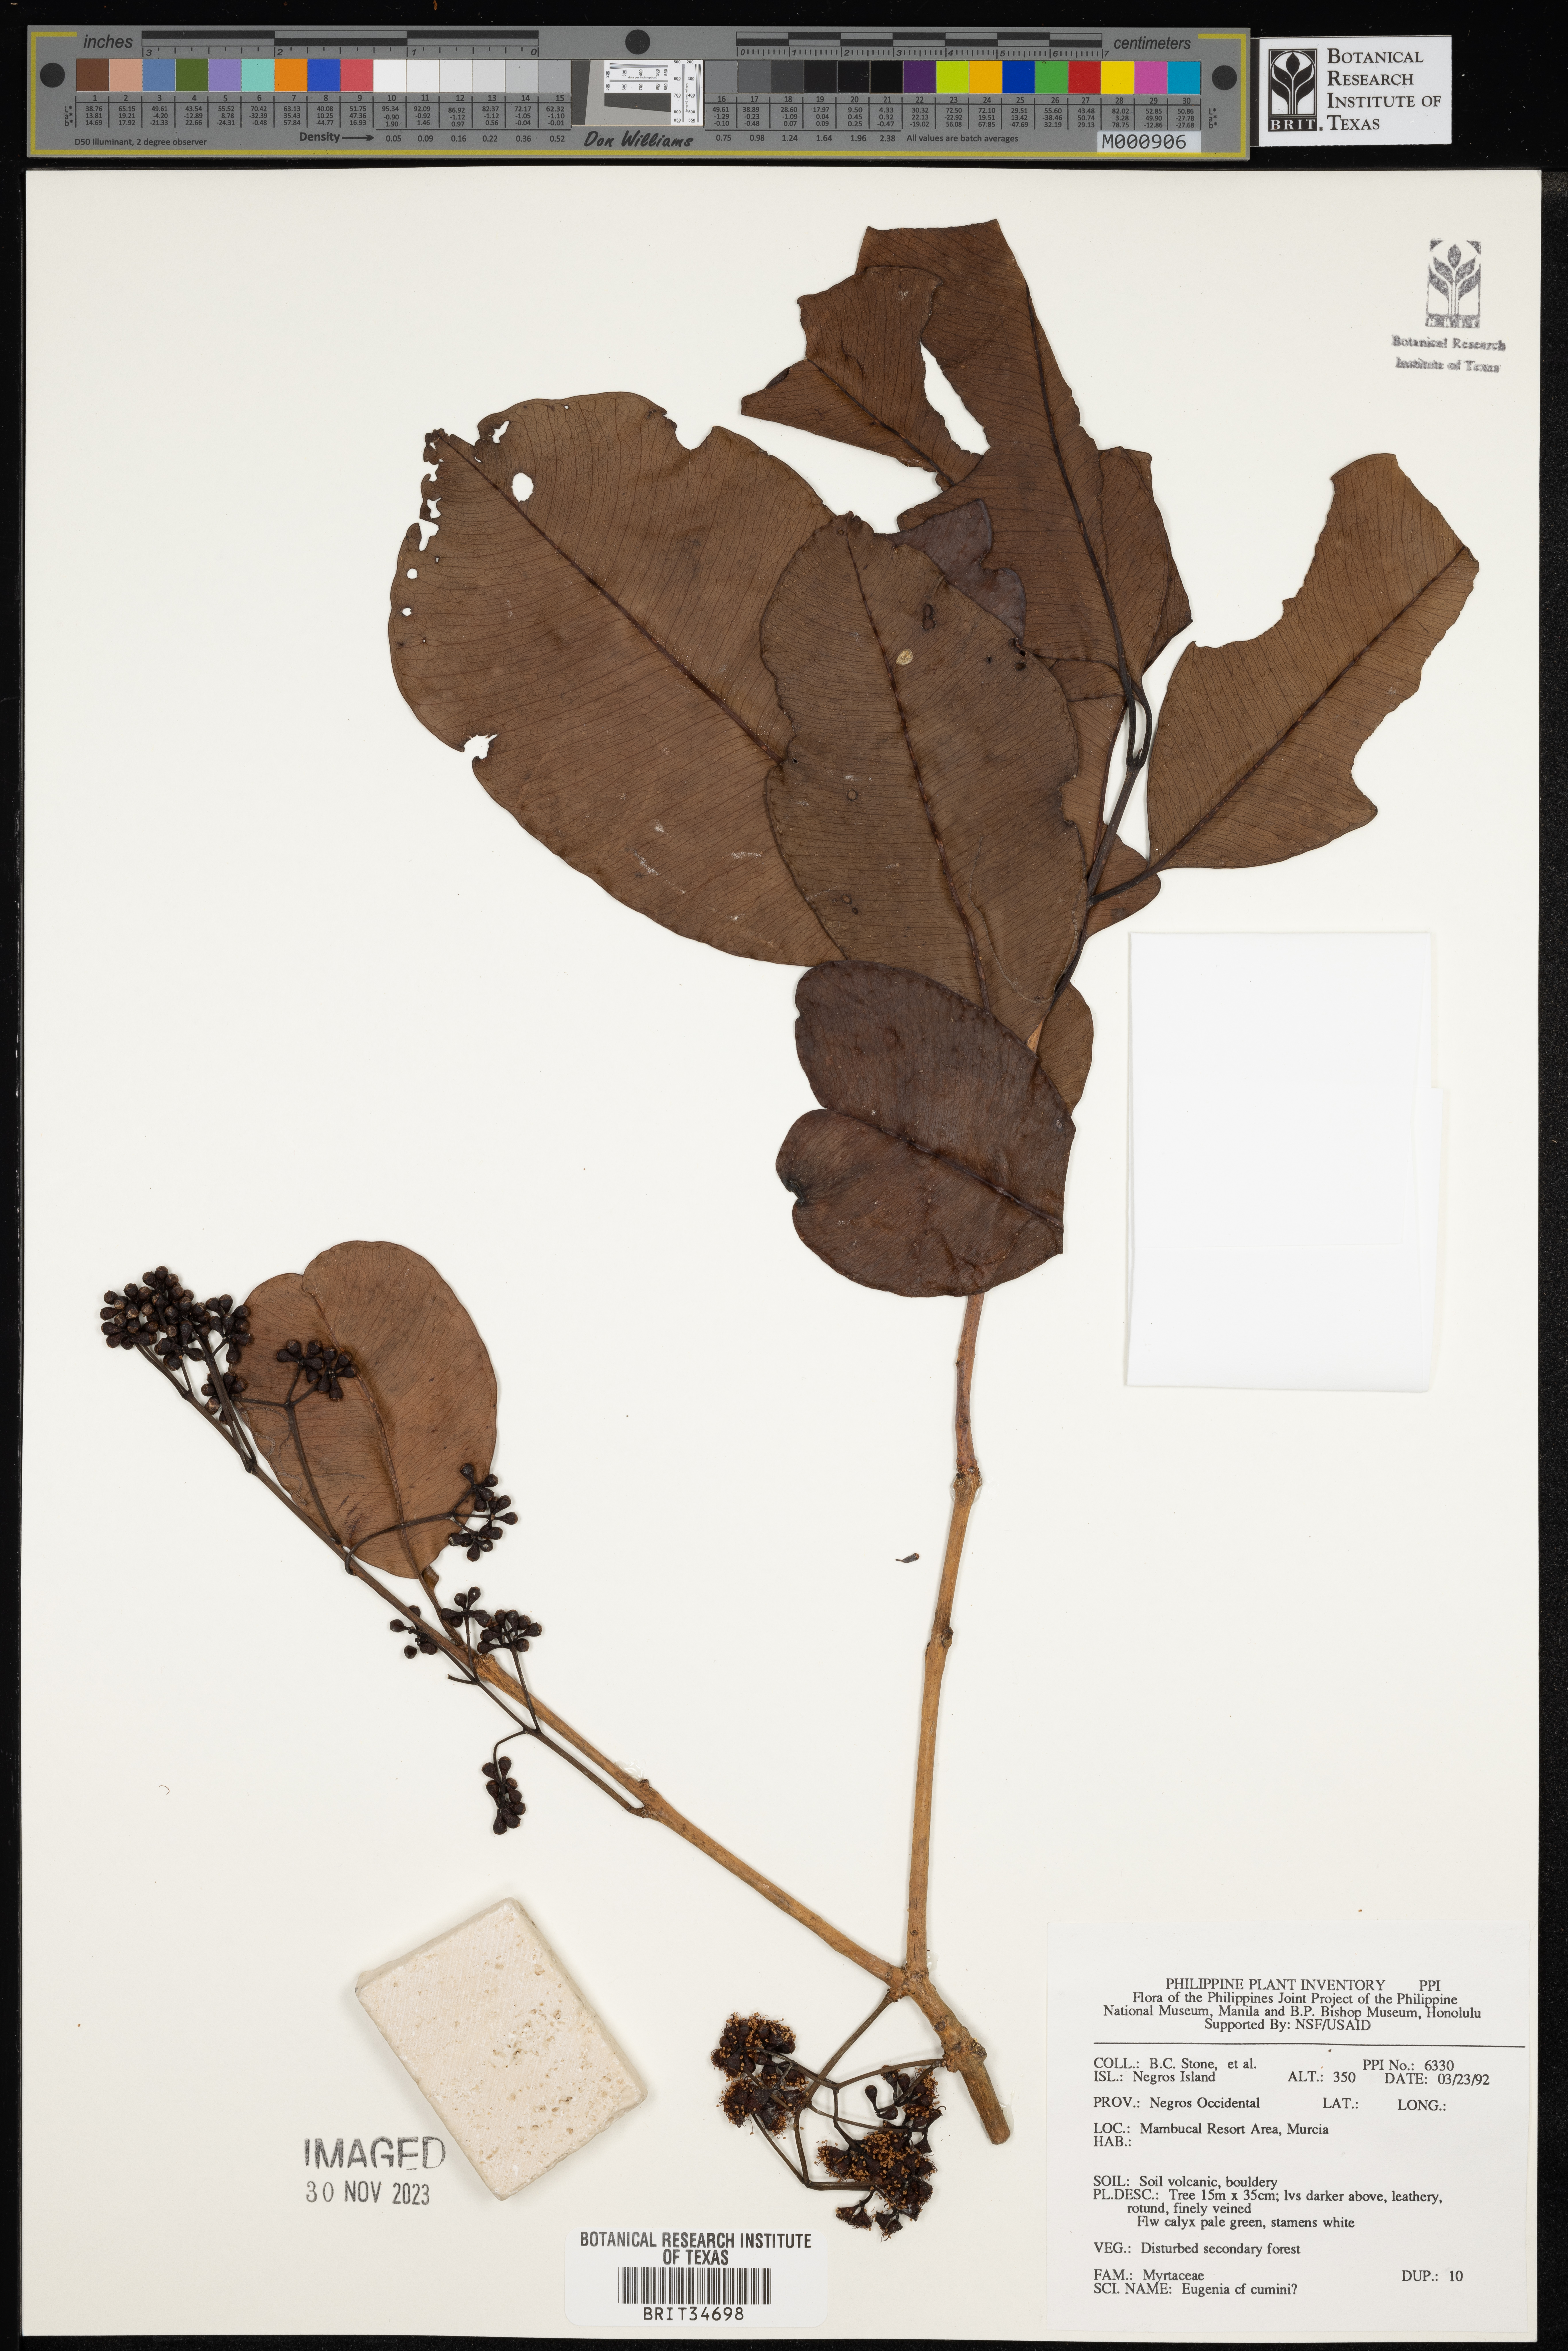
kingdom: Plantae
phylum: Tracheophyta
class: Magnoliopsida
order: Myrtales
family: Myrtaceae
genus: Syzygium
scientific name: Syzygium cumini
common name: Java plum
